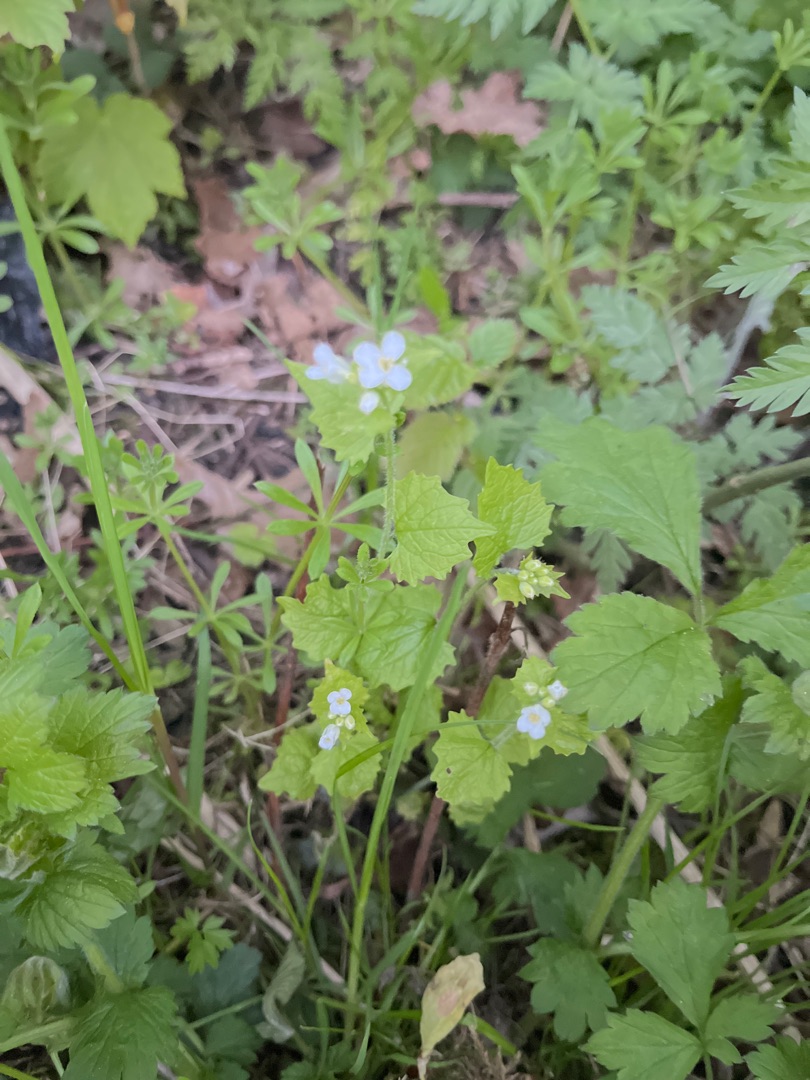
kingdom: Plantae
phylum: Tracheophyta
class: Magnoliopsida
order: Brassicales
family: Brassicaceae
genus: Alliaria
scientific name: Alliaria petiolata
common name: Løgkarse
